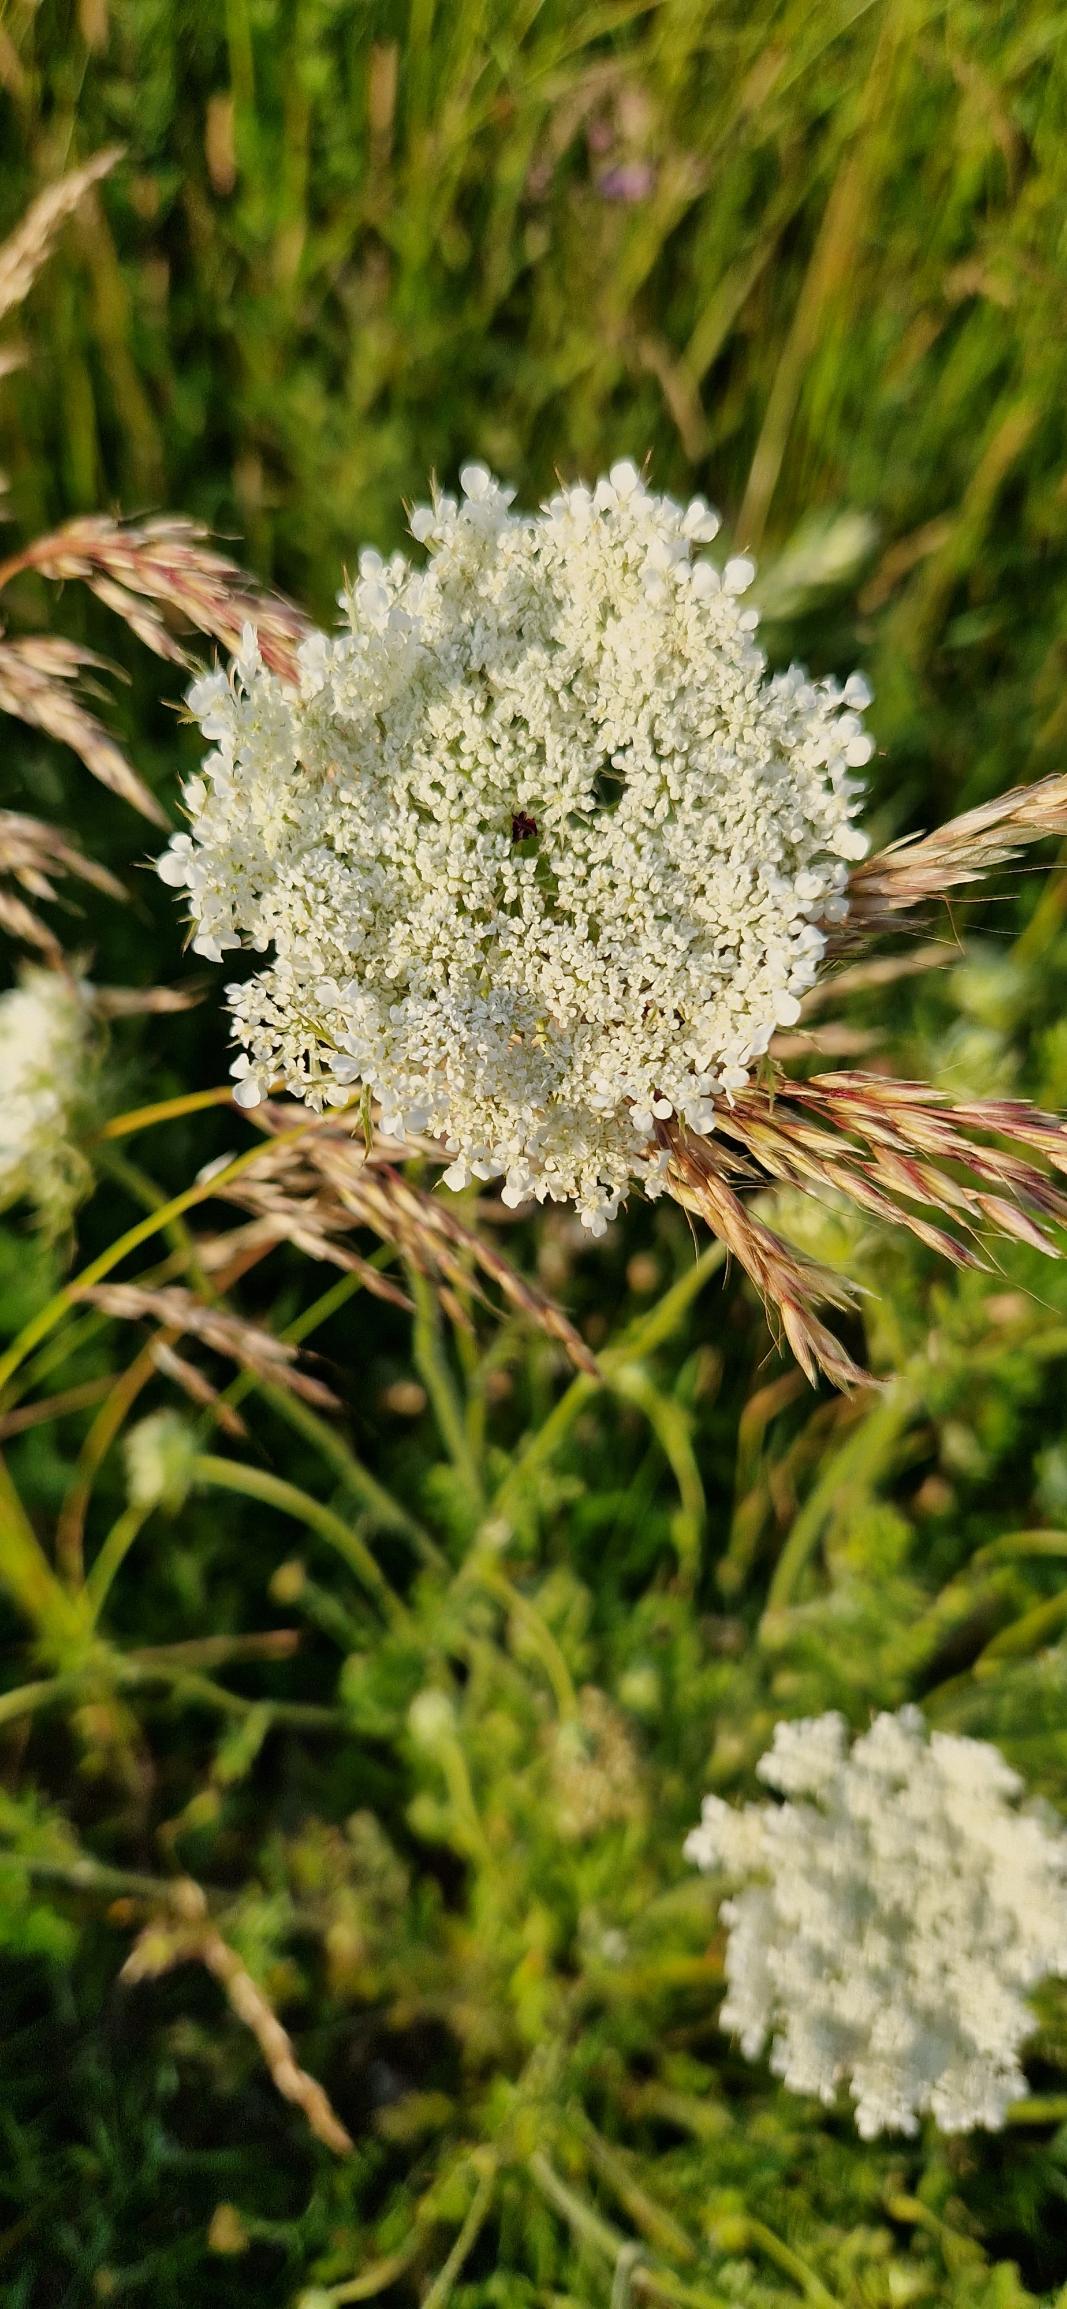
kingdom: Plantae
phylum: Tracheophyta
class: Magnoliopsida
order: Apiales
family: Apiaceae
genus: Daucus
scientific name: Daucus carota
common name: Gulerod
